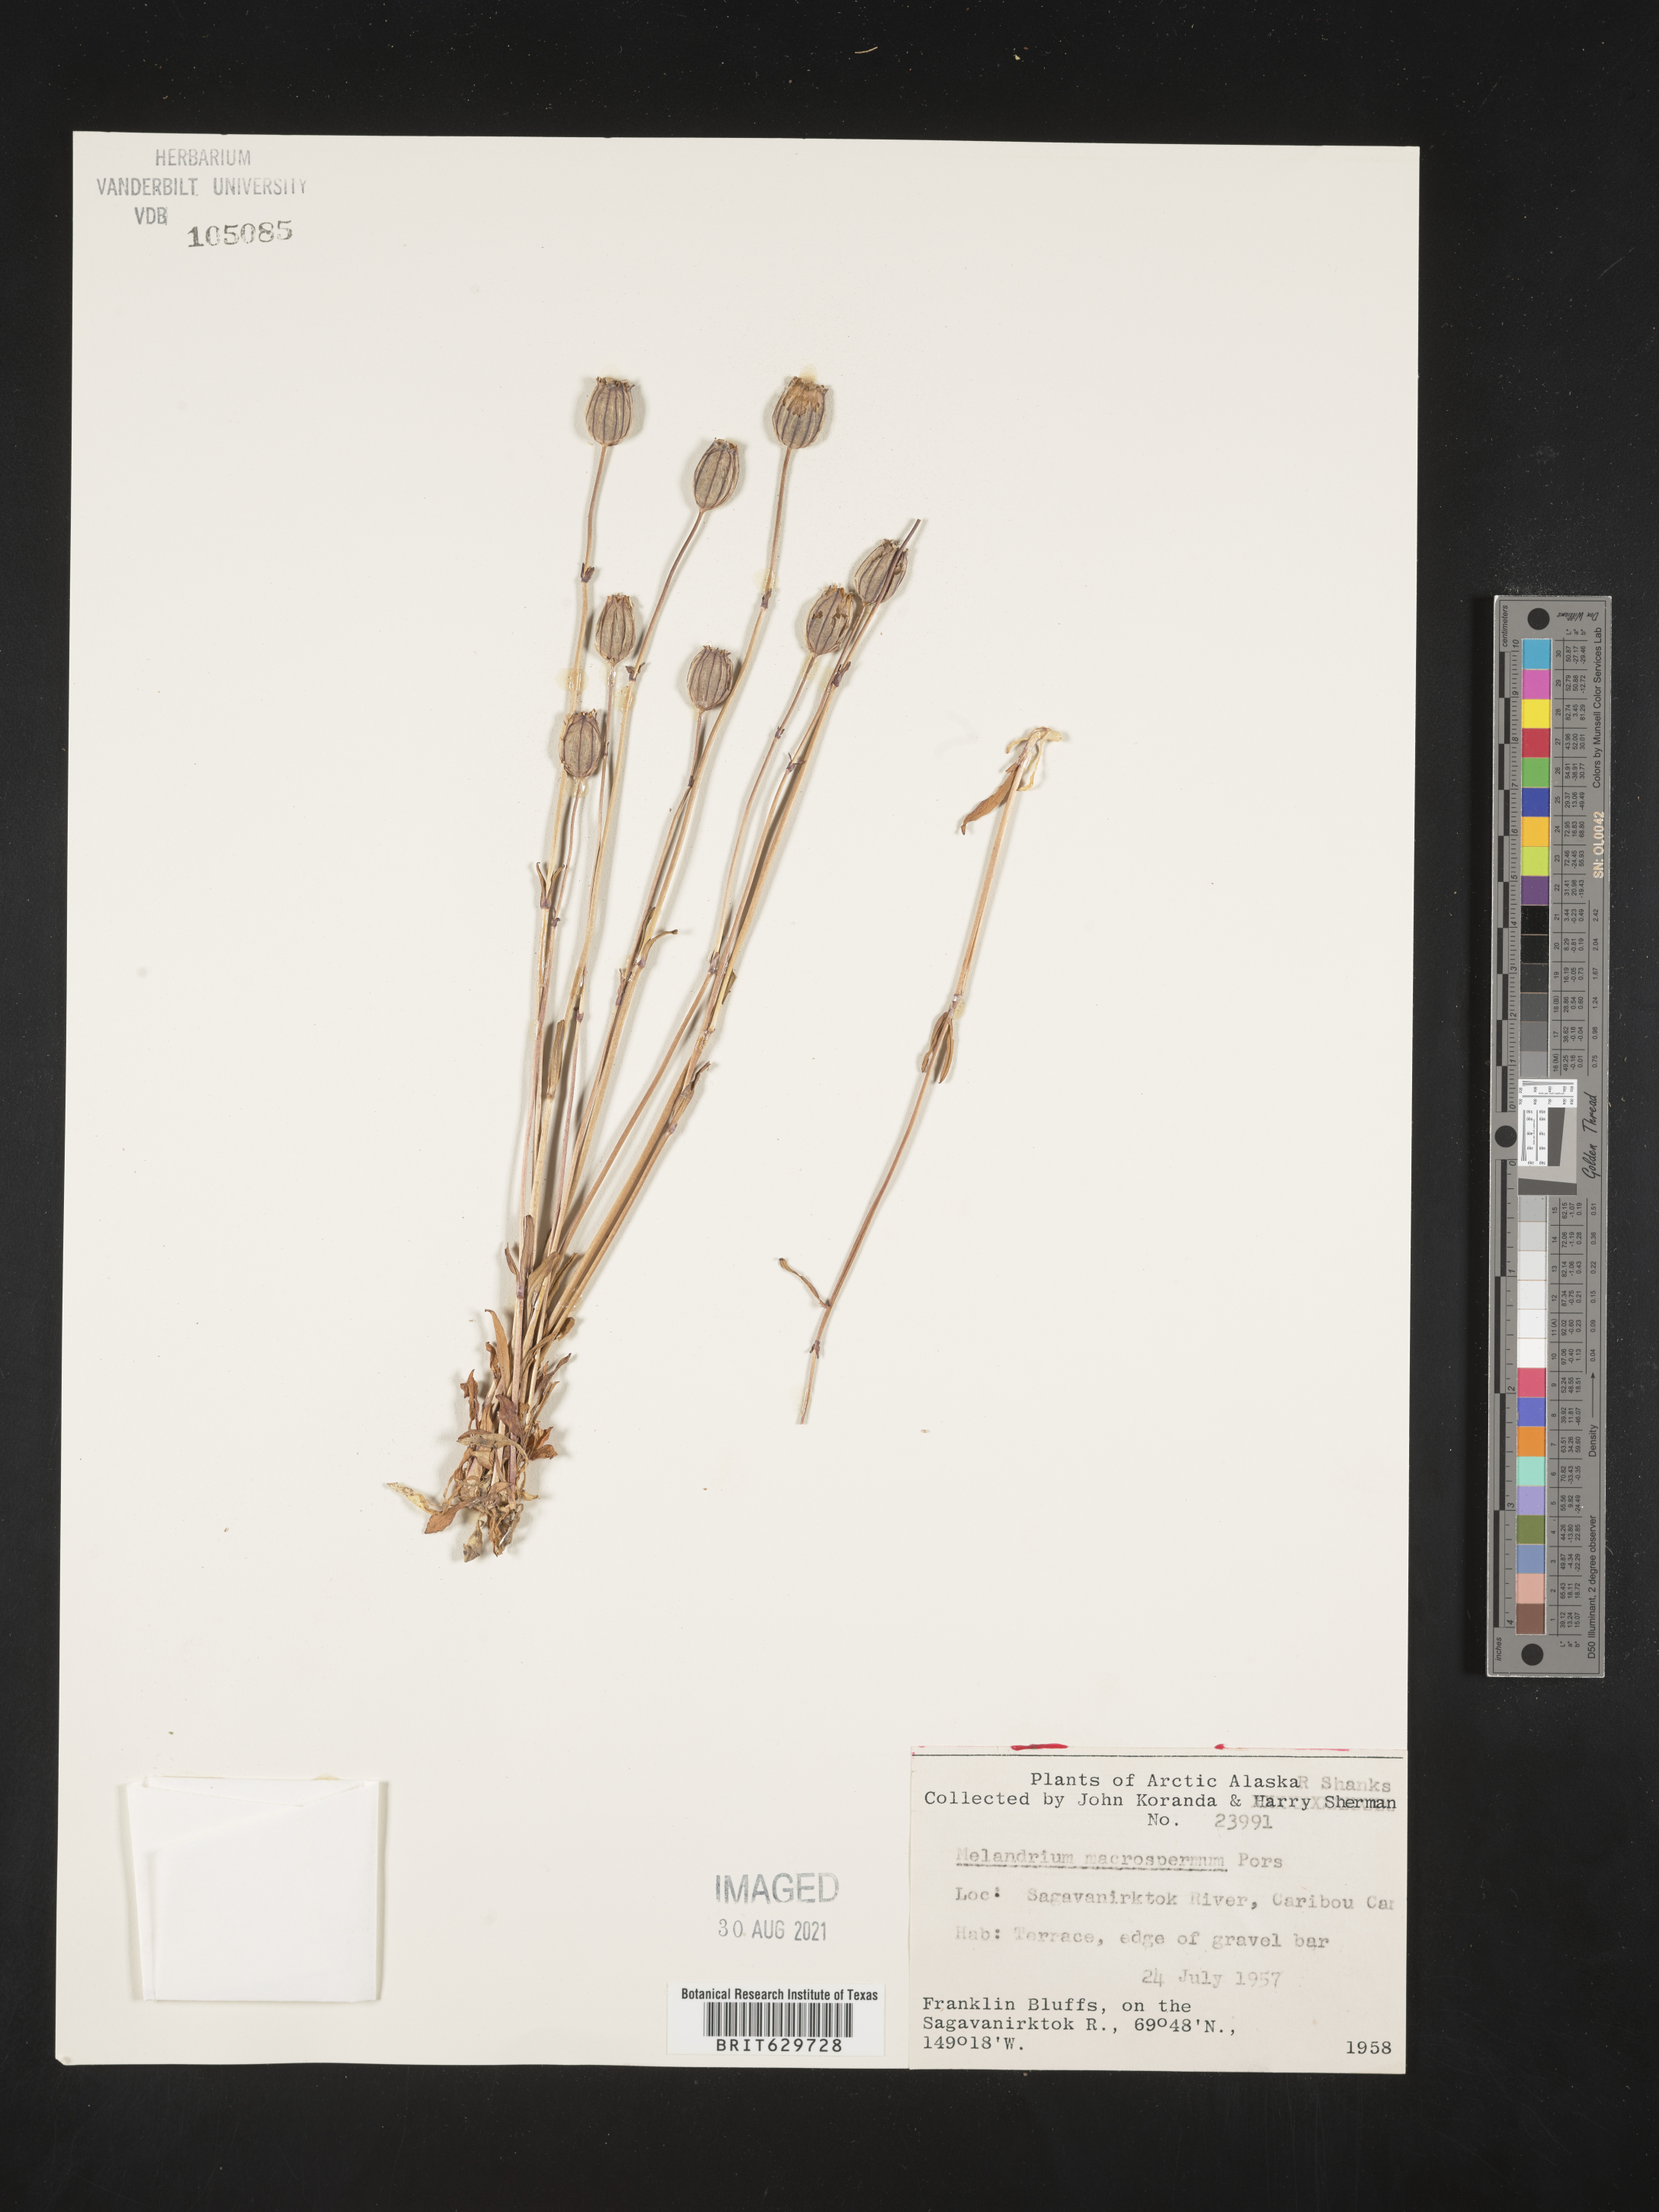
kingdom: Plantae
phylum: Tracheophyta
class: Magnoliopsida
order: Caryophyllales
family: Caryophyllaceae
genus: Silene
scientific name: Silene uralensis
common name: Nodding campion
